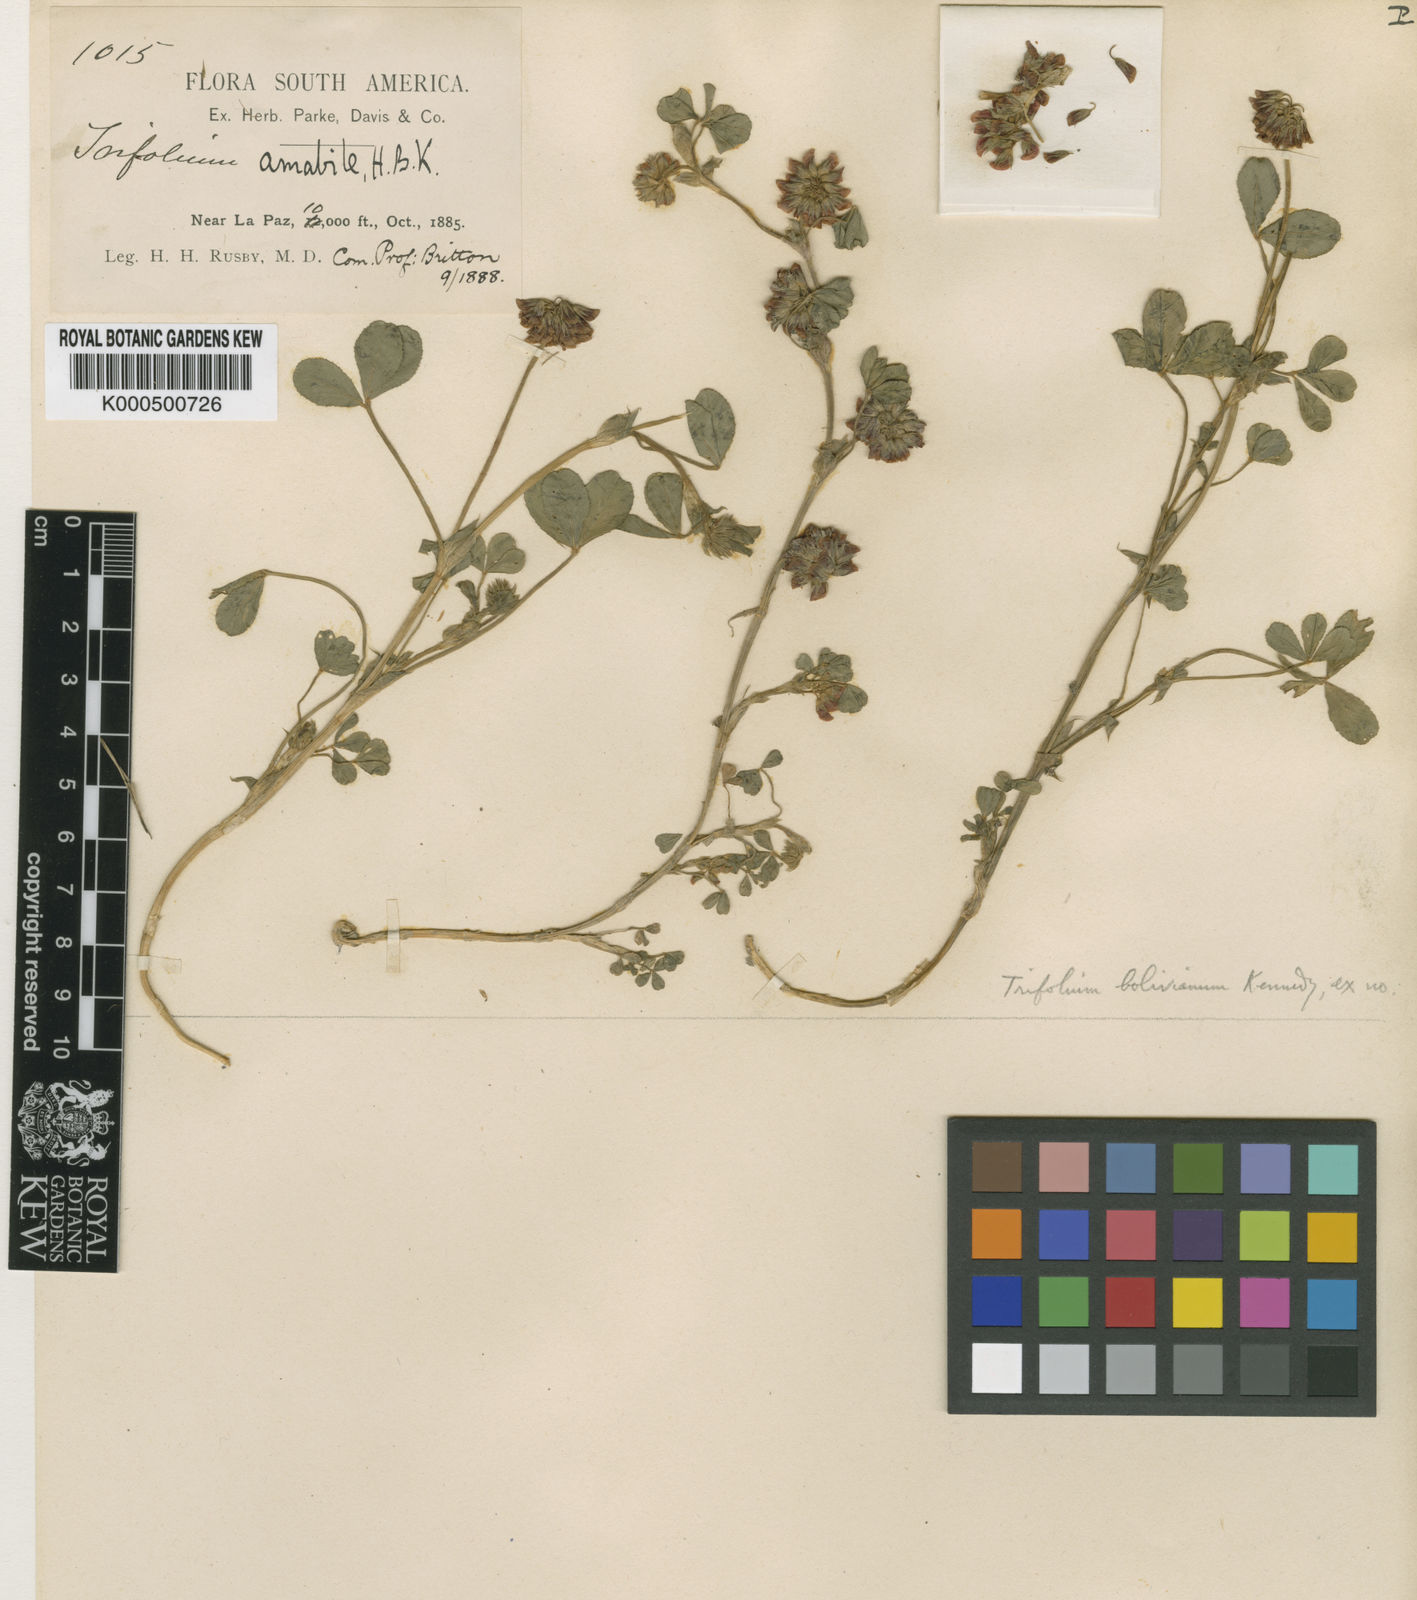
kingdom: Plantae
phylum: Tracheophyta
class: Magnoliopsida
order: Fabales
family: Fabaceae
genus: Trifolium
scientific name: Trifolium amabile
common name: Aztec clover
